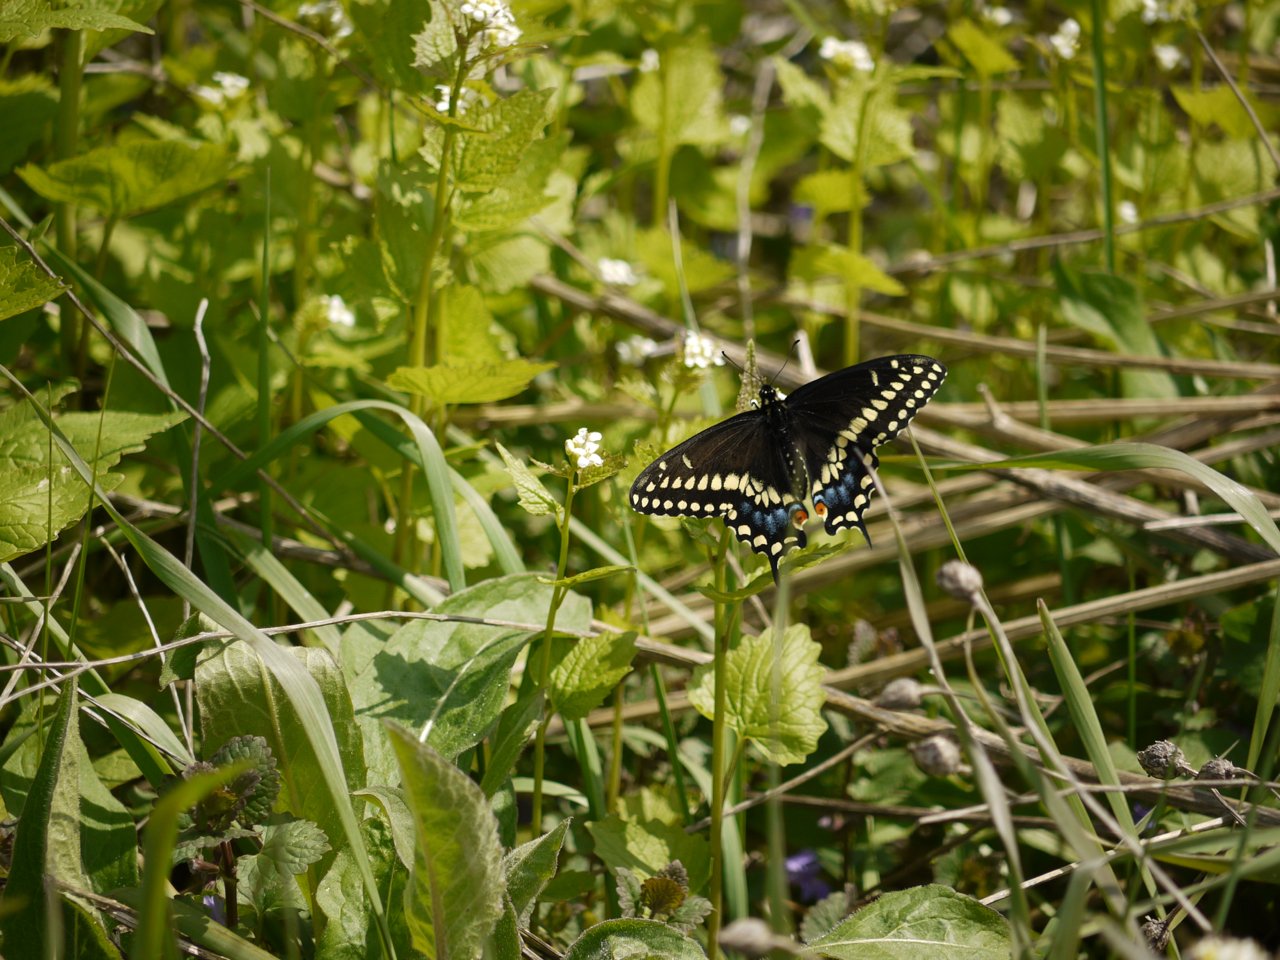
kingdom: Animalia
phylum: Arthropoda
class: Insecta
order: Lepidoptera
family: Papilionidae
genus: Papilio
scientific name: Papilio polyxenes
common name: Black Swallowtail
